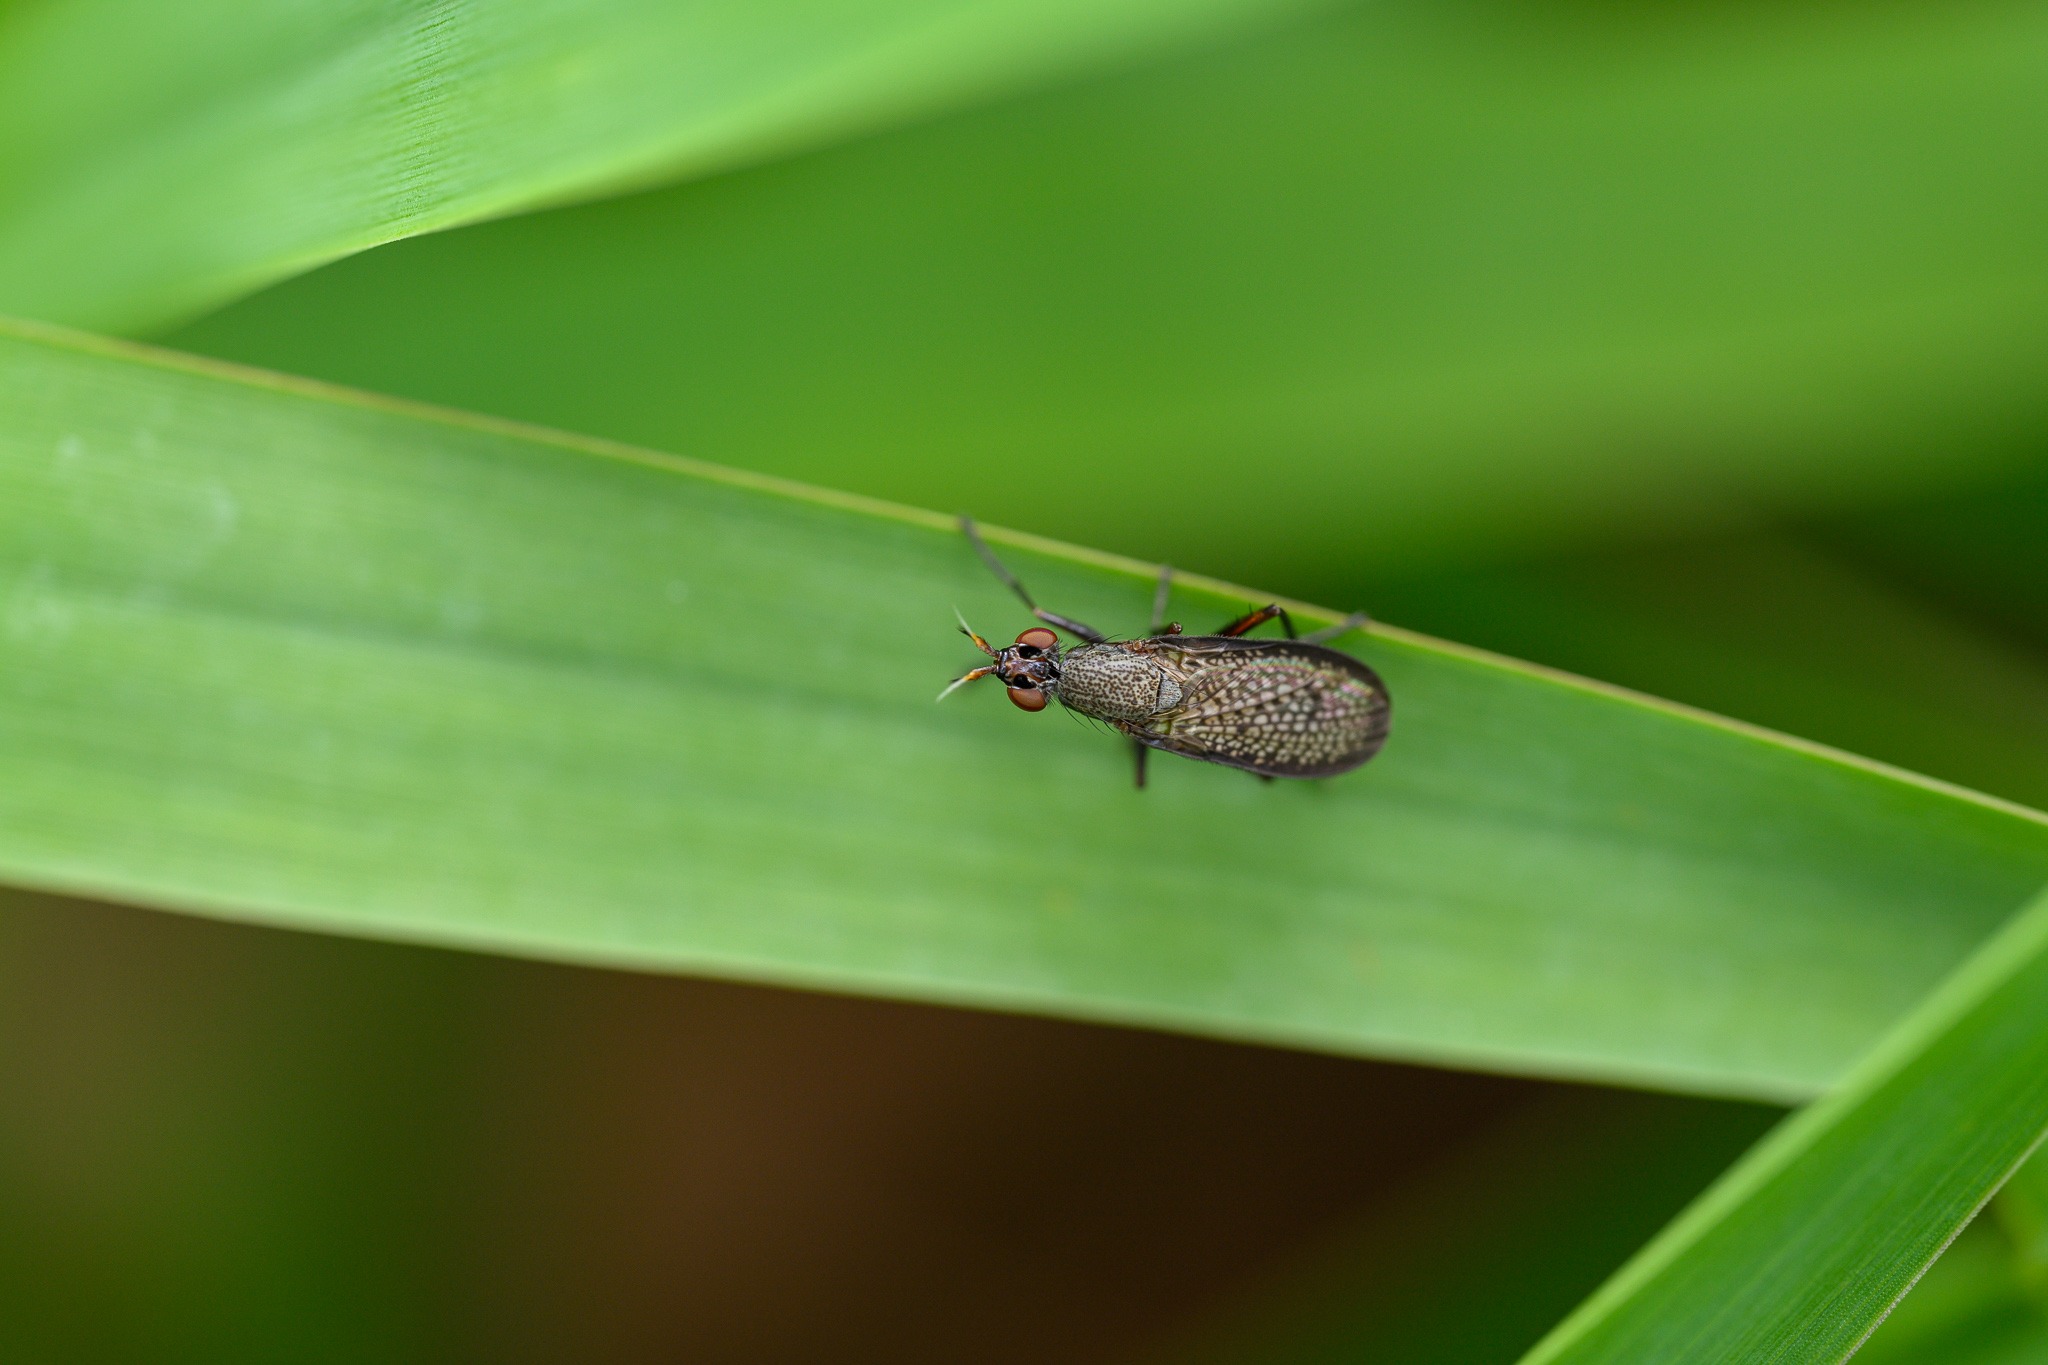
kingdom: Animalia
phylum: Arthropoda
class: Insecta
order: Diptera
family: Sciomyzidae
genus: Coremacera
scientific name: Coremacera marginata
